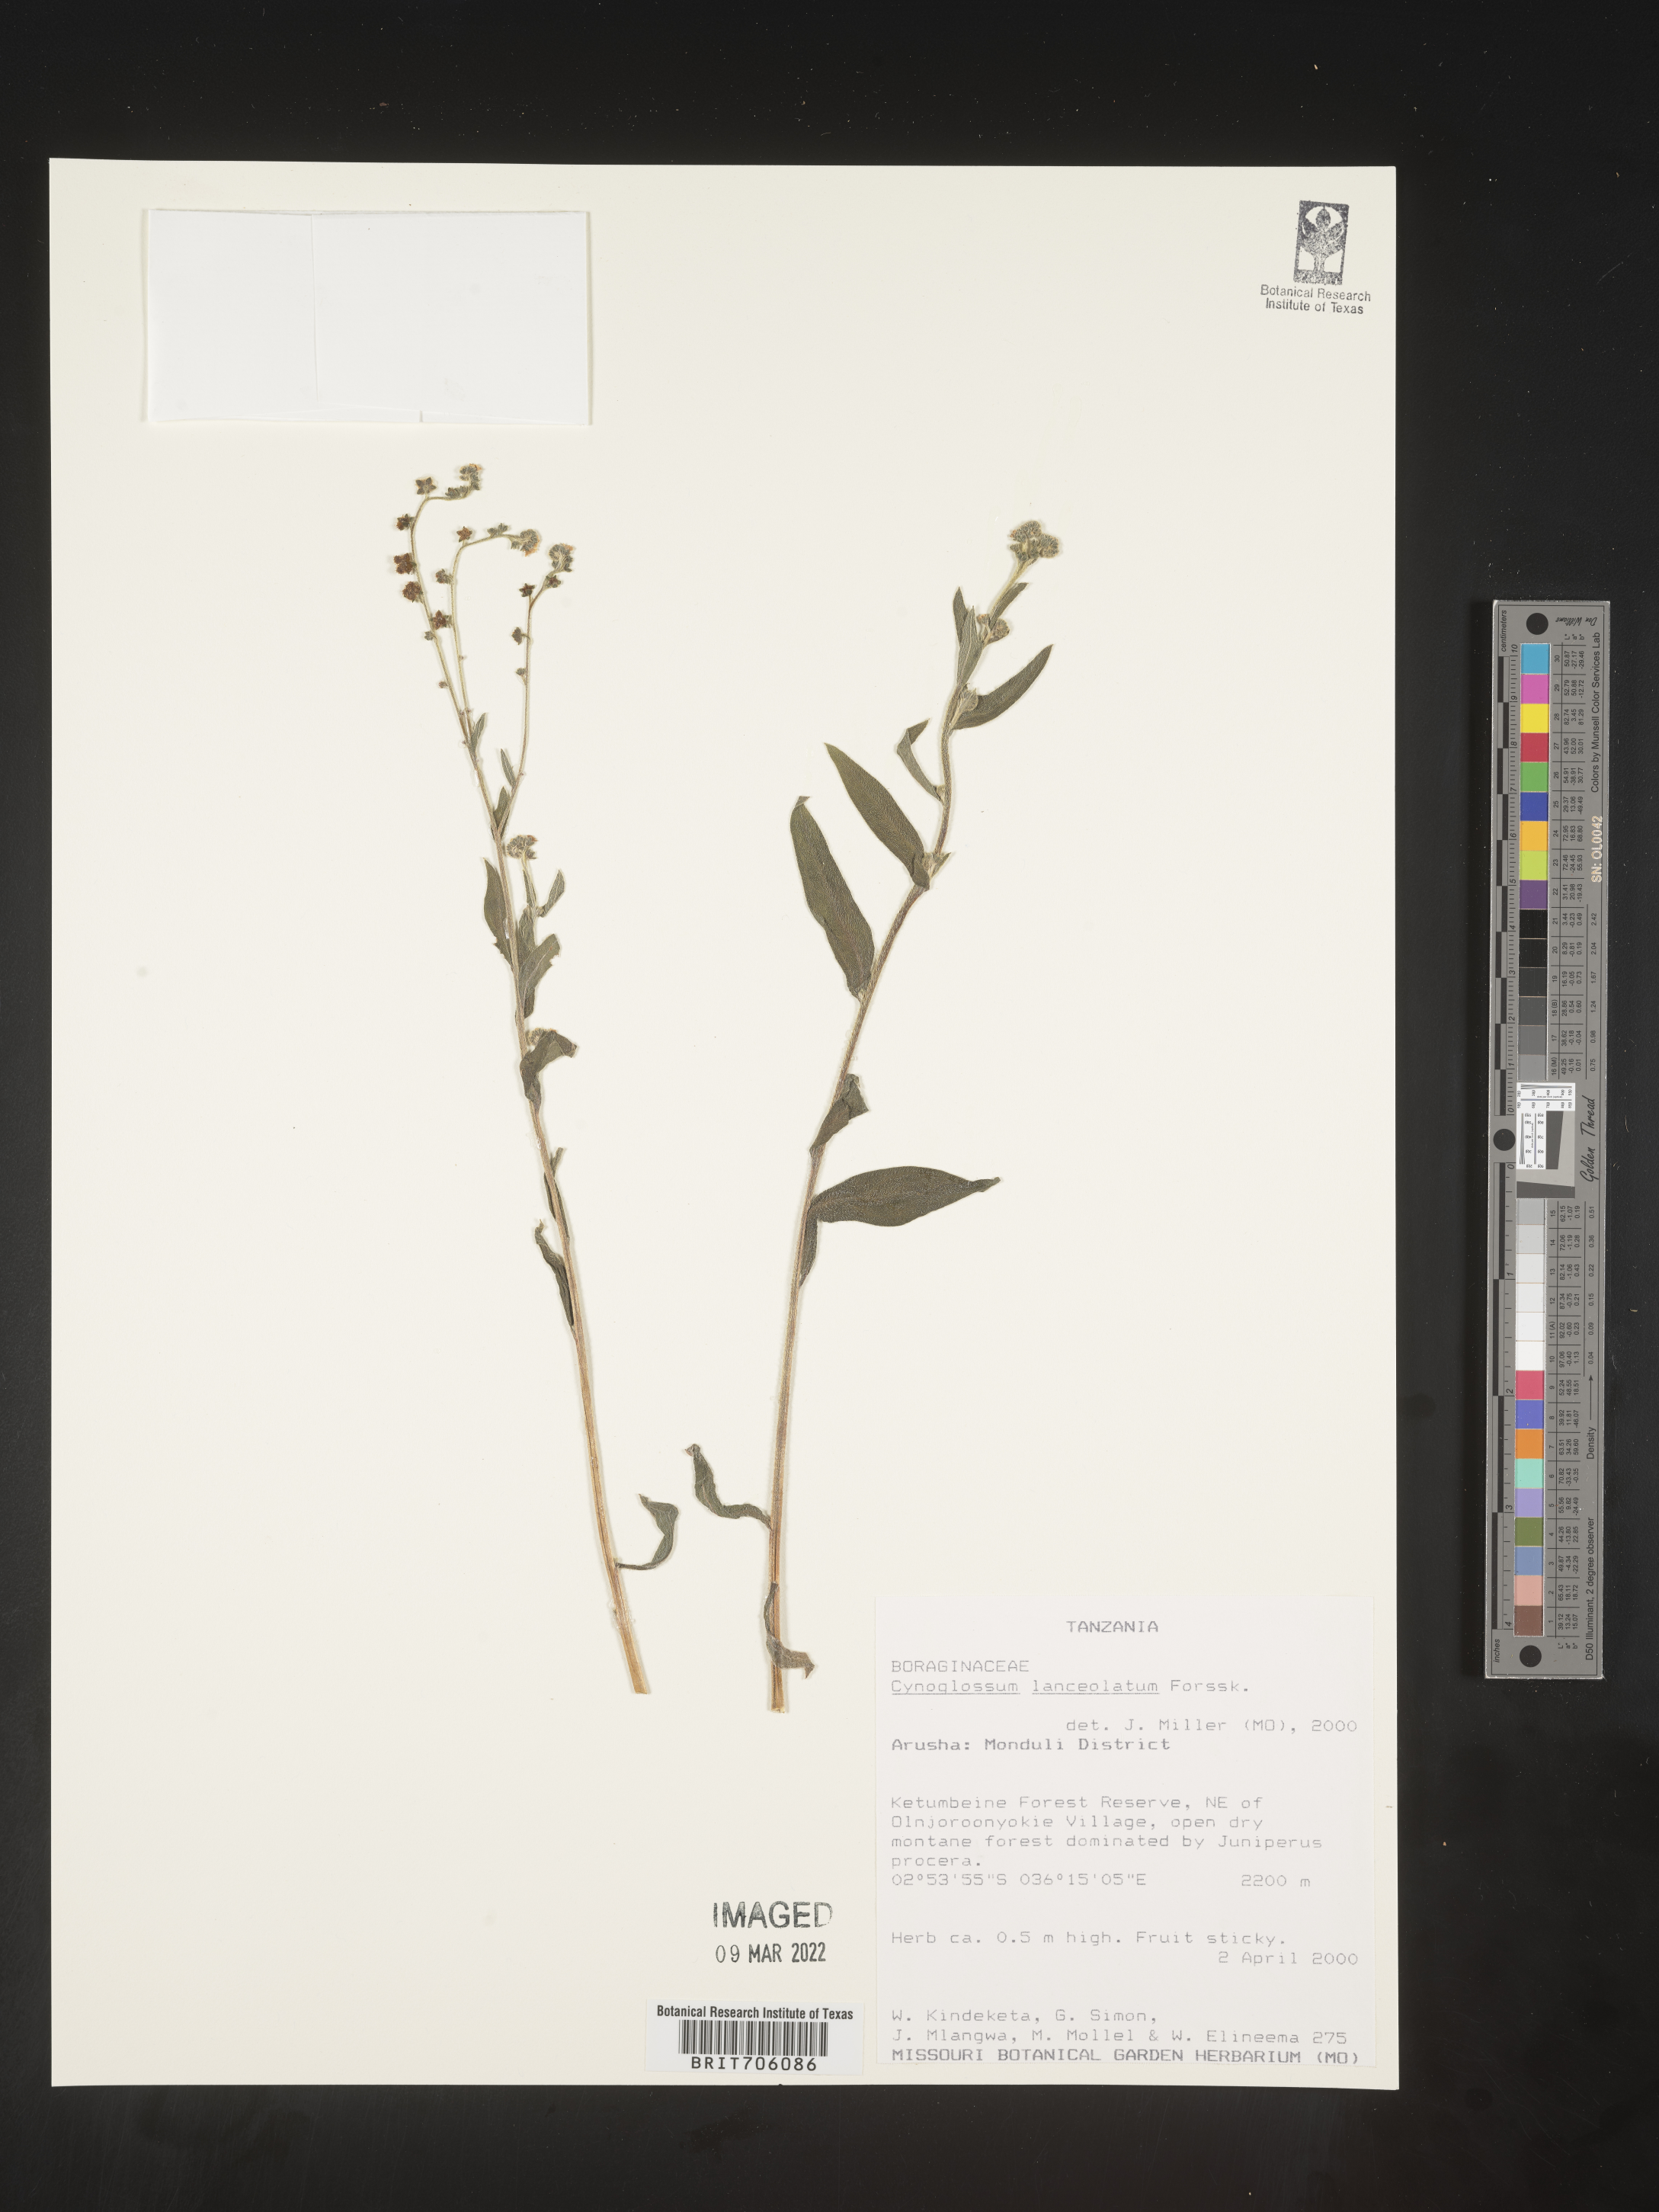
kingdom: Plantae
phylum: Tracheophyta
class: Magnoliopsida
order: Boraginales
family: Boraginaceae
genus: Cynoglossum
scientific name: Cynoglossum
